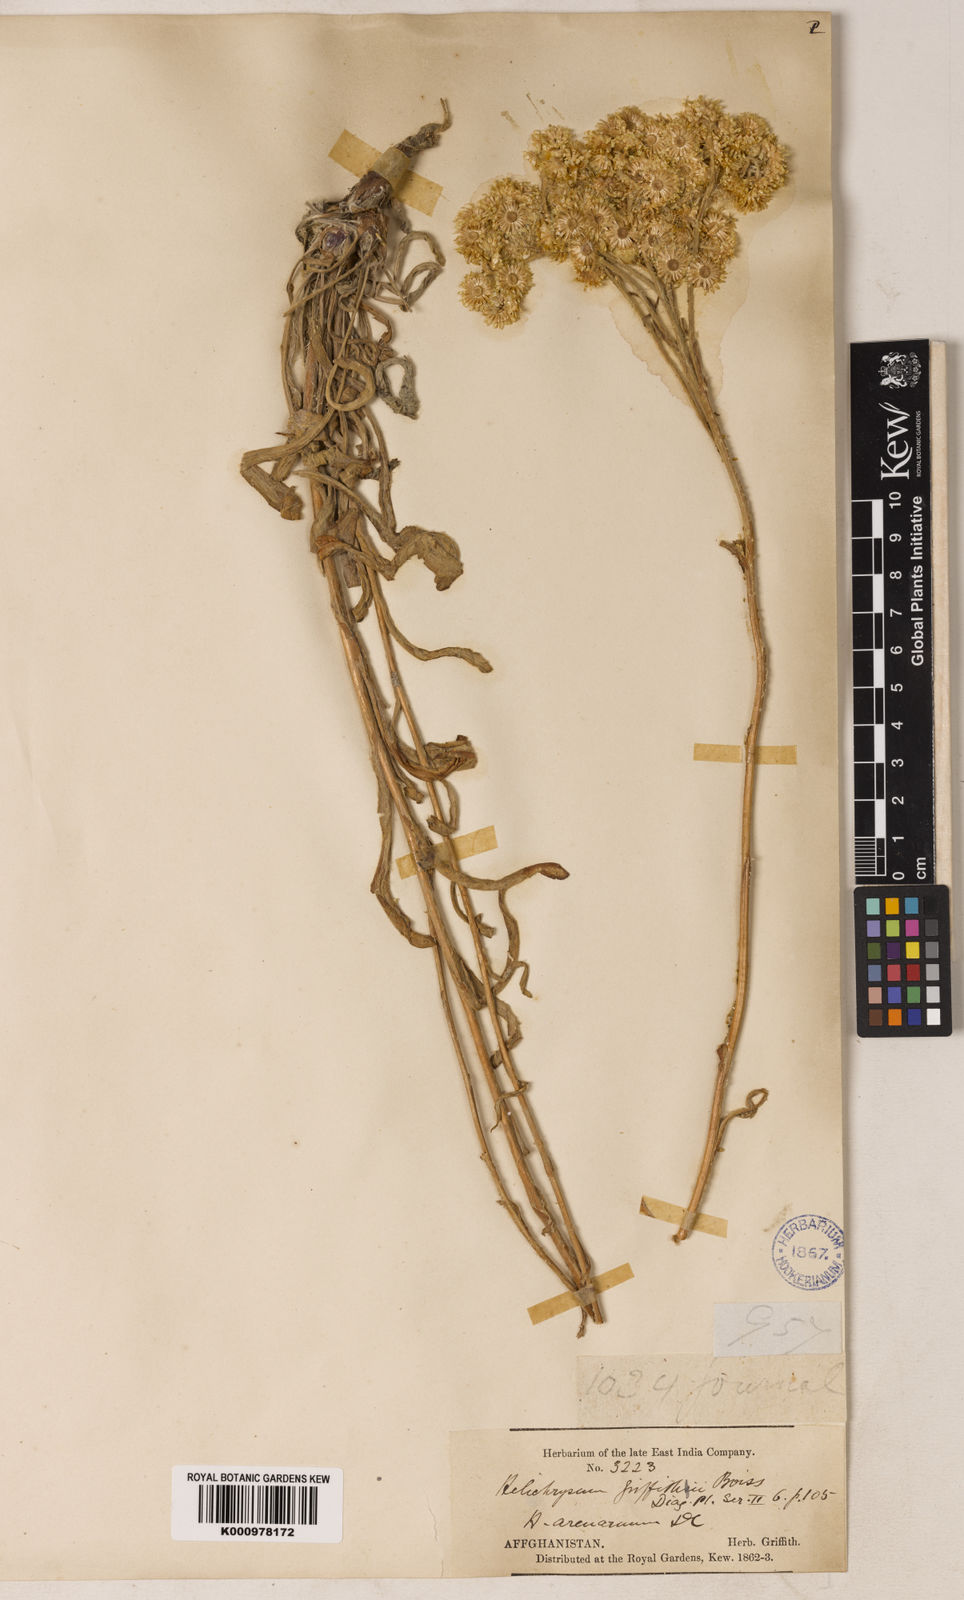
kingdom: Plantae
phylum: Tracheophyta
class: Magnoliopsida
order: Asterales
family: Asteraceae
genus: Pseudognaphalium
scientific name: Pseudognaphalium affine
